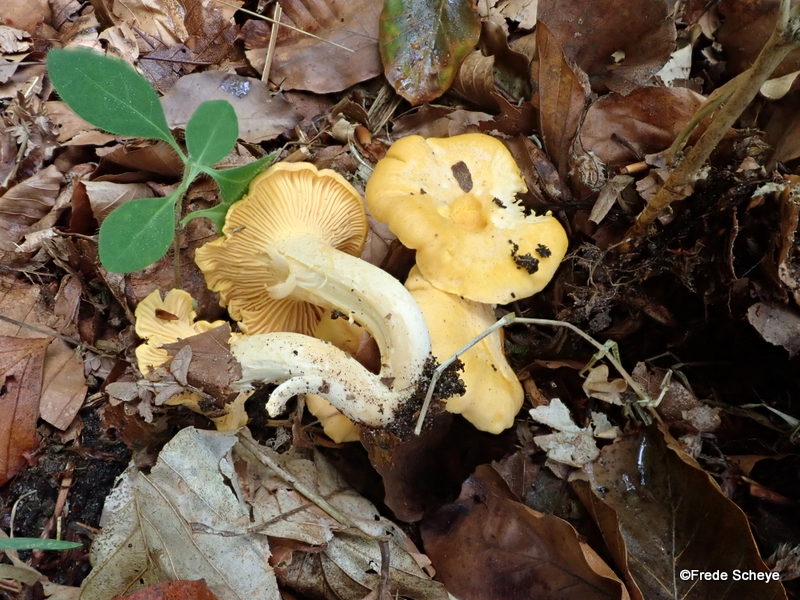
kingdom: Fungi
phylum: Basidiomycota
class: Agaricomycetes
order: Cantharellales
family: Hydnaceae
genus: Cantharellus
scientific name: Cantharellus cibarius
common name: almindelig kantarel
